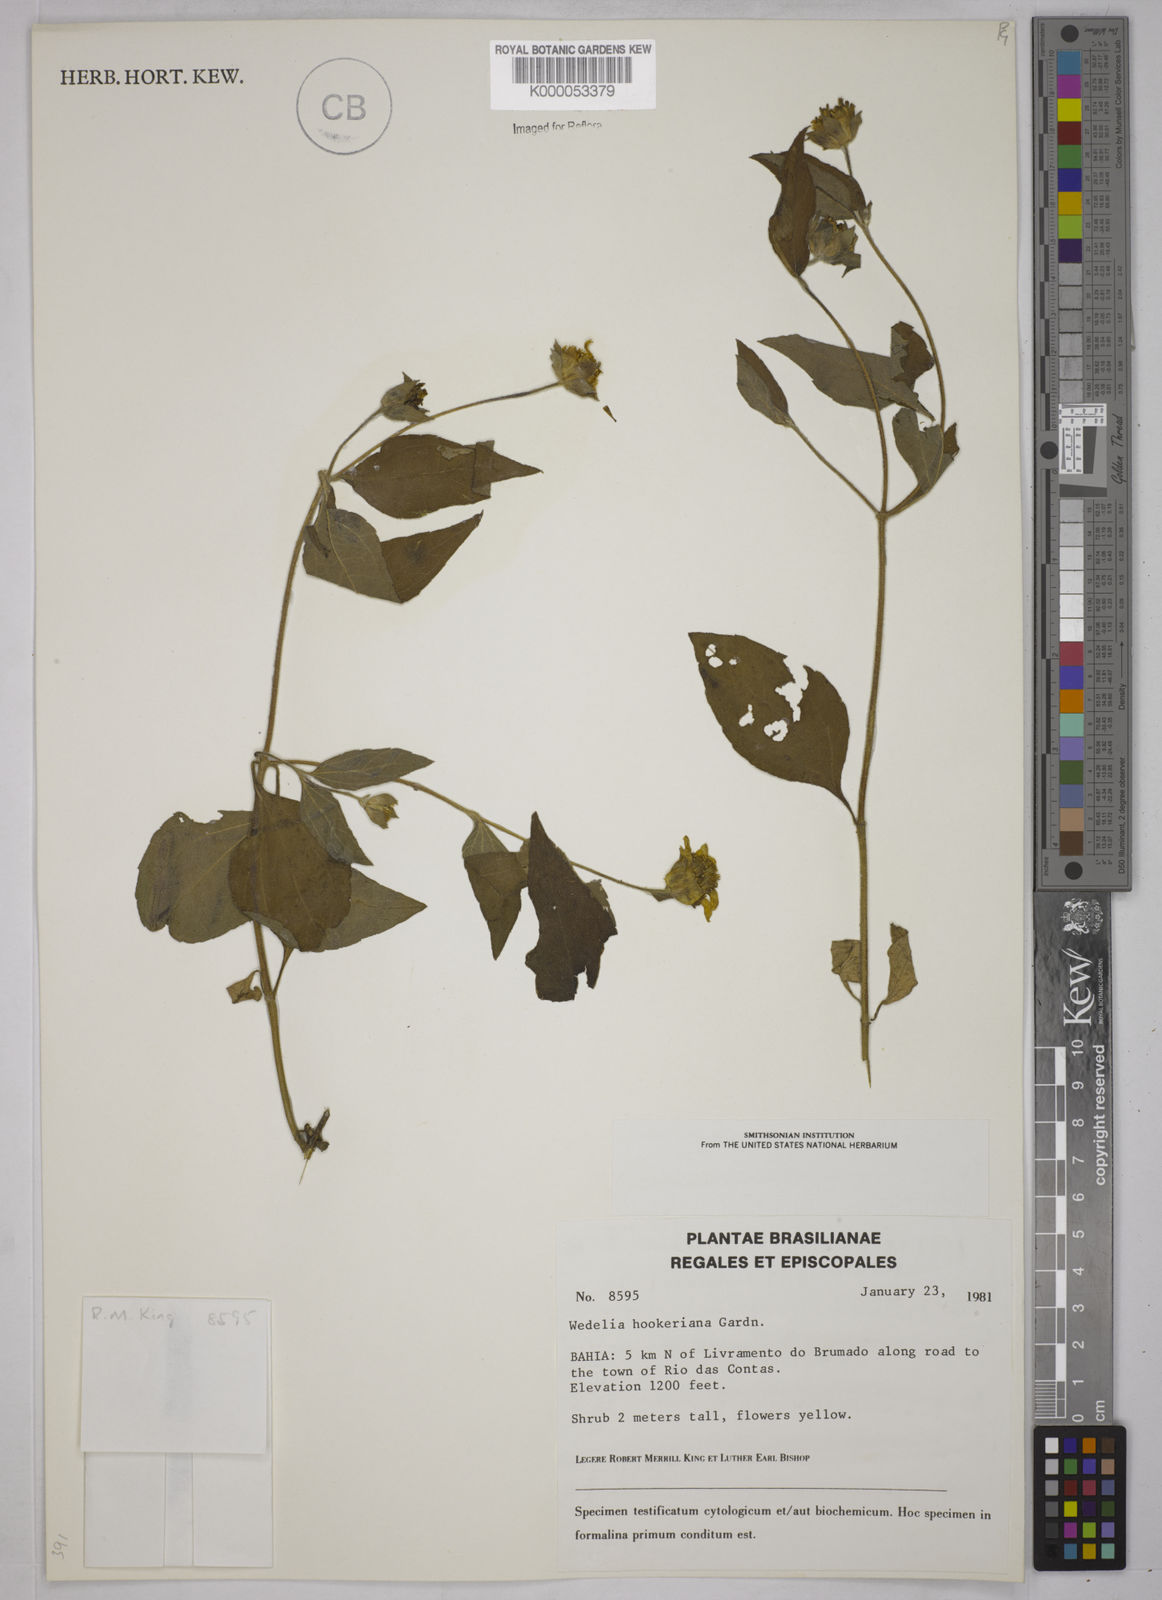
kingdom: Plantae
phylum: Tracheophyta
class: Magnoliopsida
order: Asterales
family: Asteraceae
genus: Wedelia
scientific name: Wedelia hookeriana
